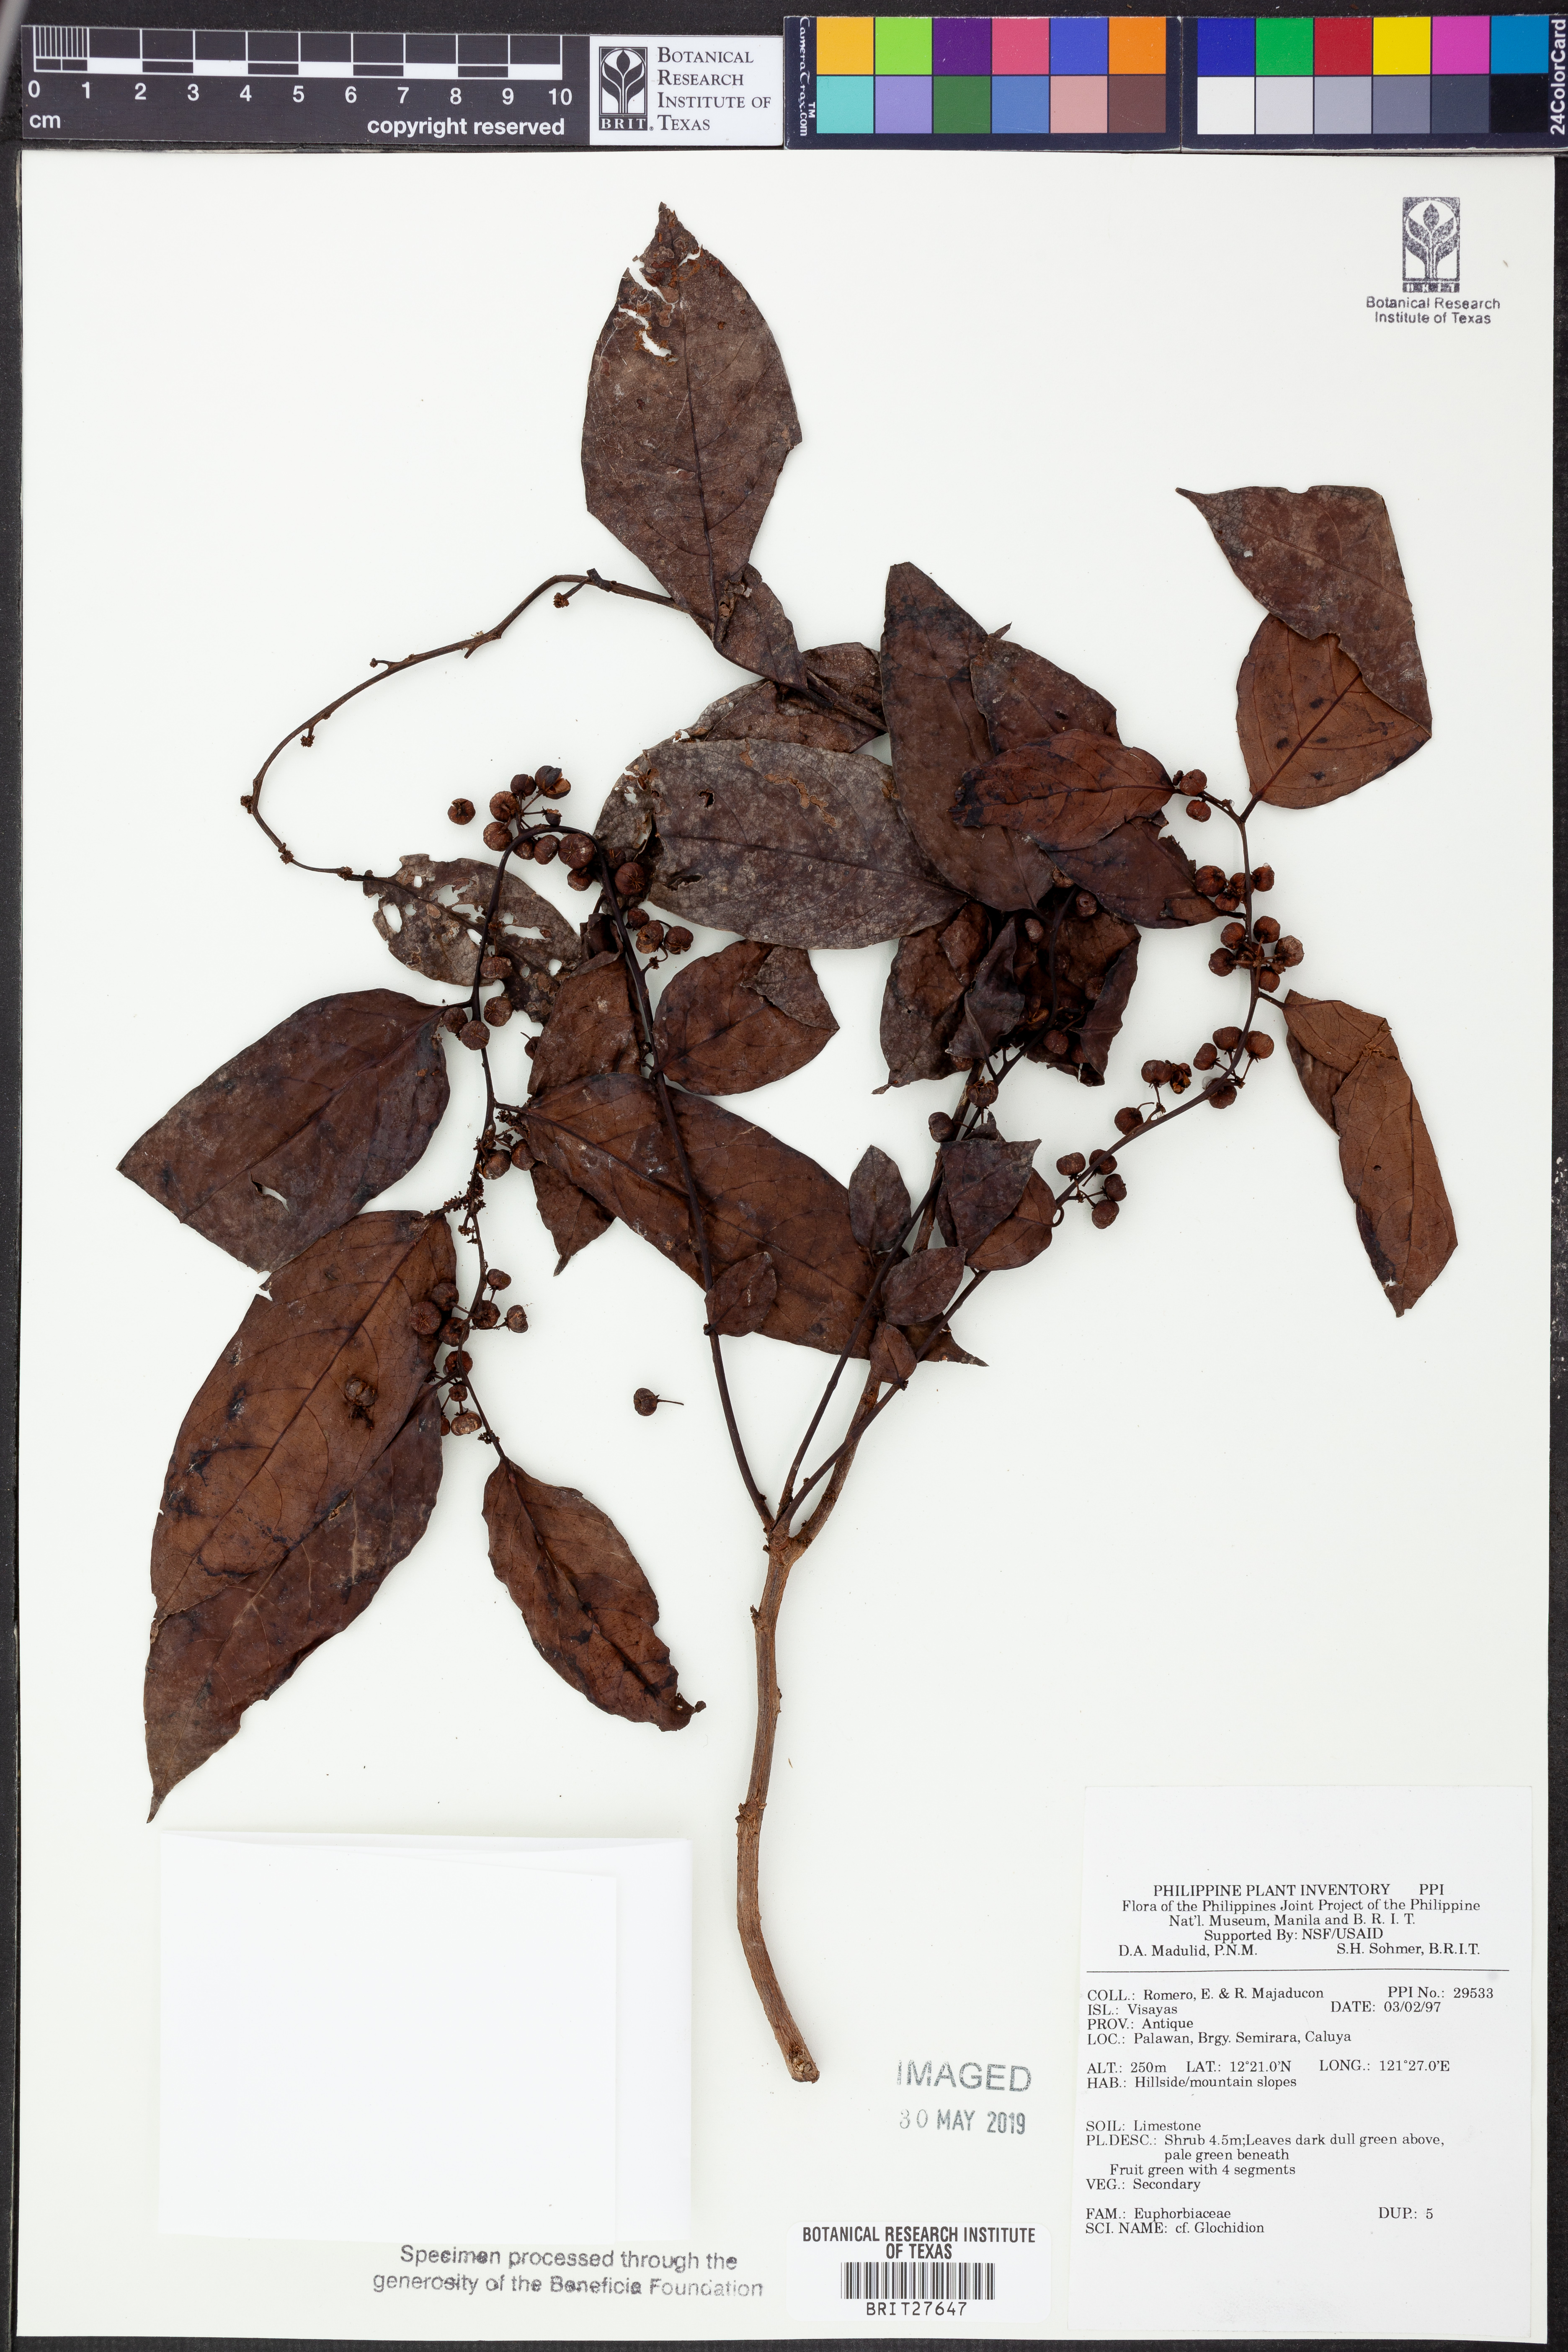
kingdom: Plantae
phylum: Tracheophyta
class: Magnoliopsida
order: Malpighiales
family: Phyllanthaceae
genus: Glochidion
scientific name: Glochidion
